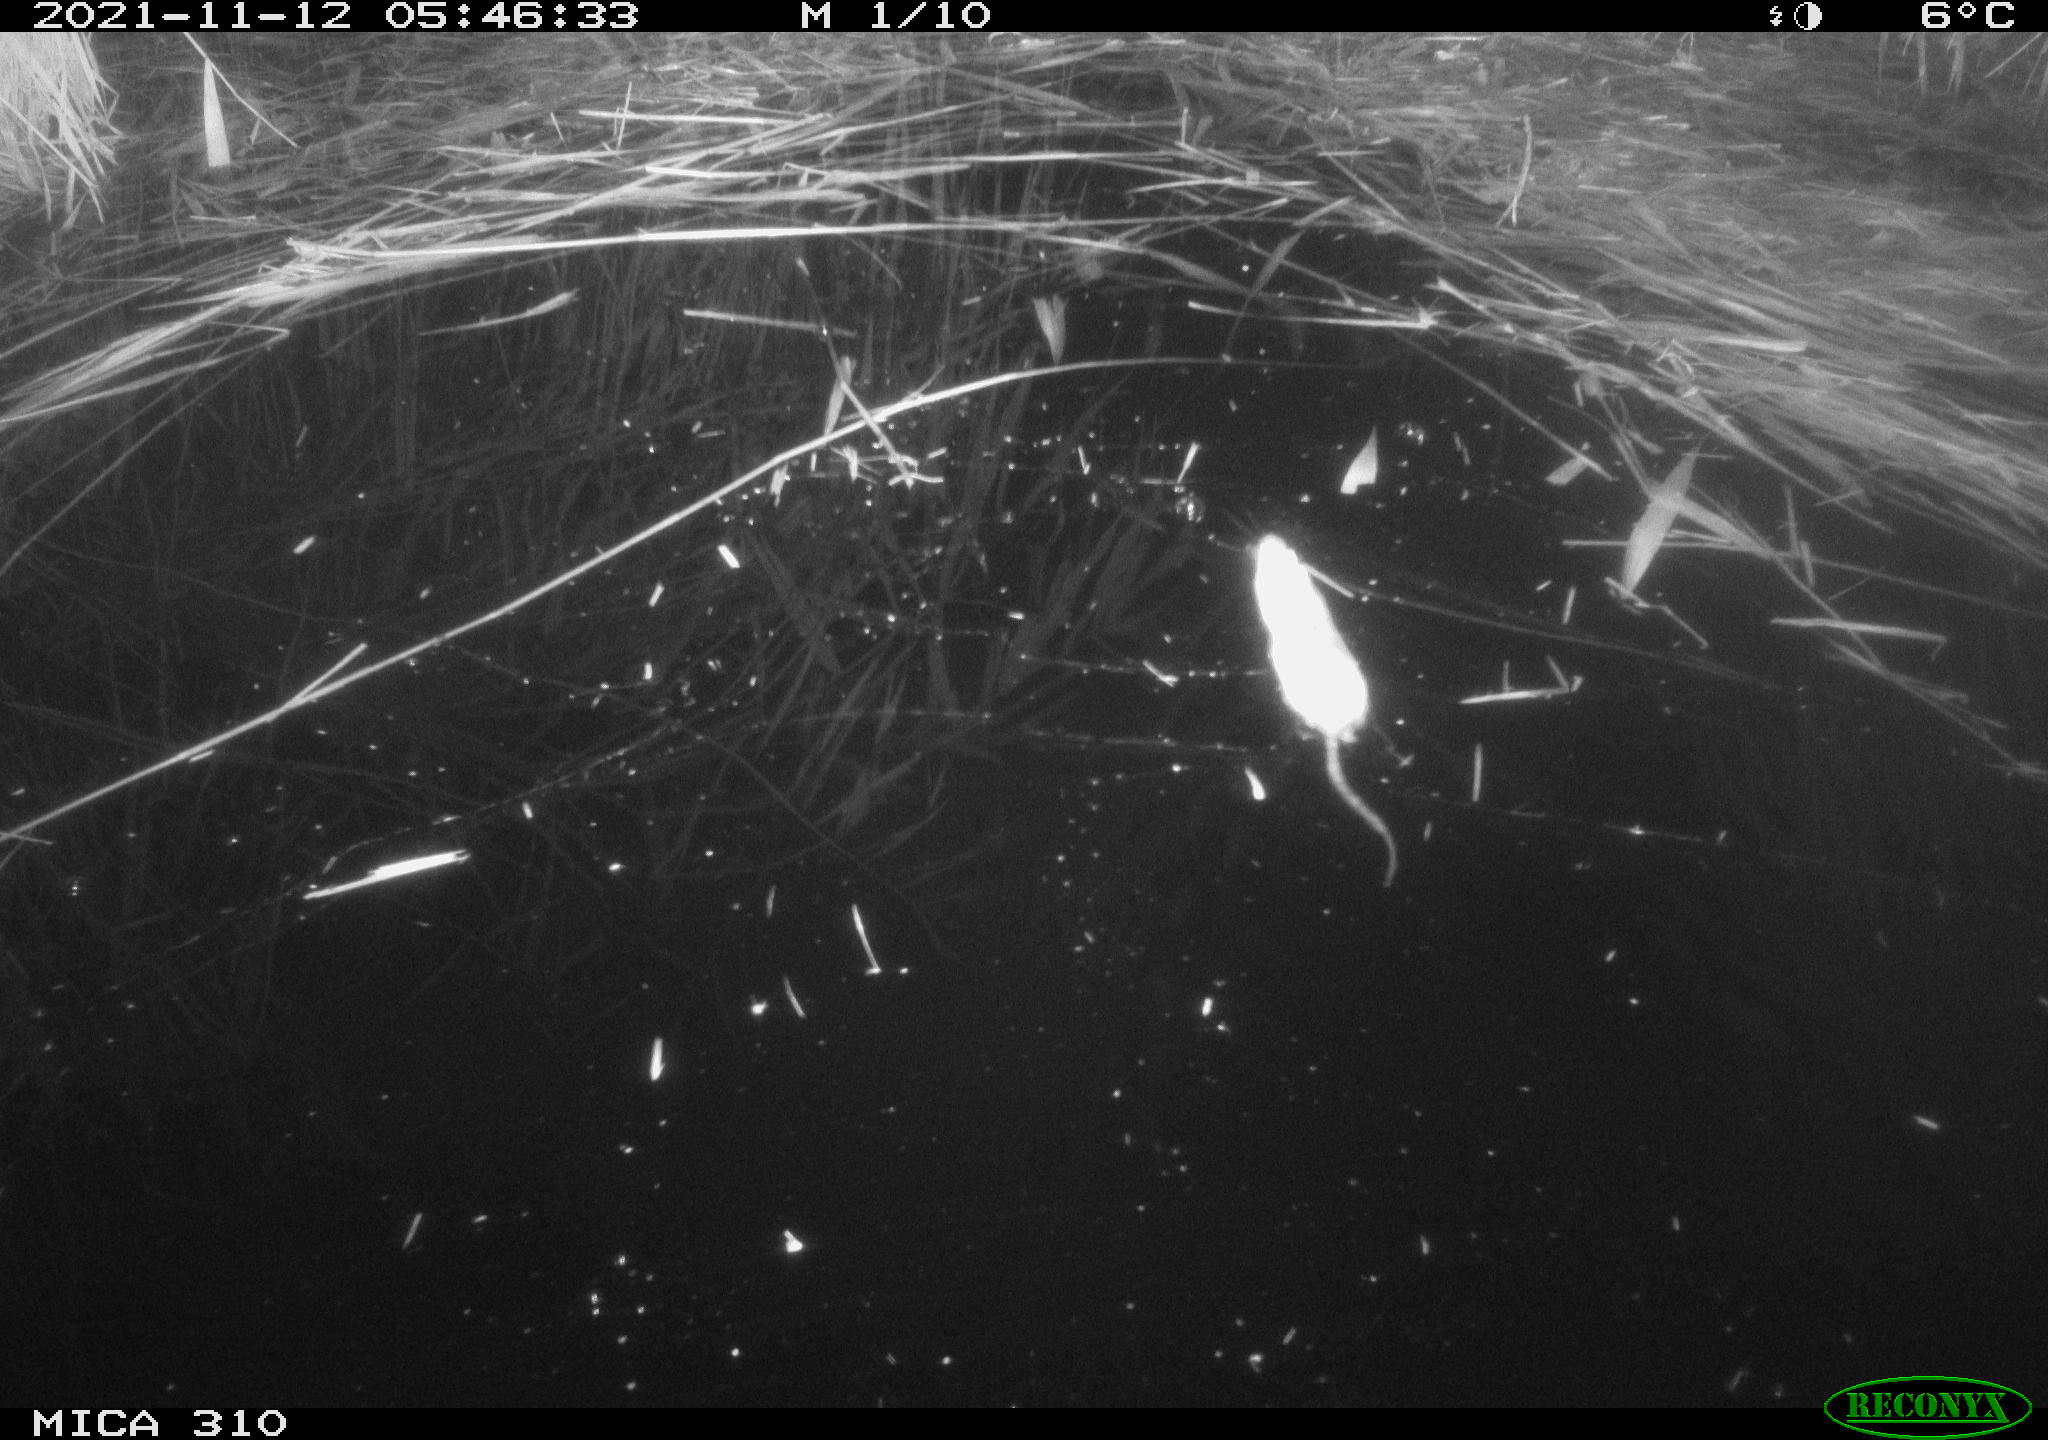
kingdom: Animalia
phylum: Chordata
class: Mammalia
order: Rodentia
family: Muridae
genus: Rattus
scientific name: Rattus norvegicus
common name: Brown rat
